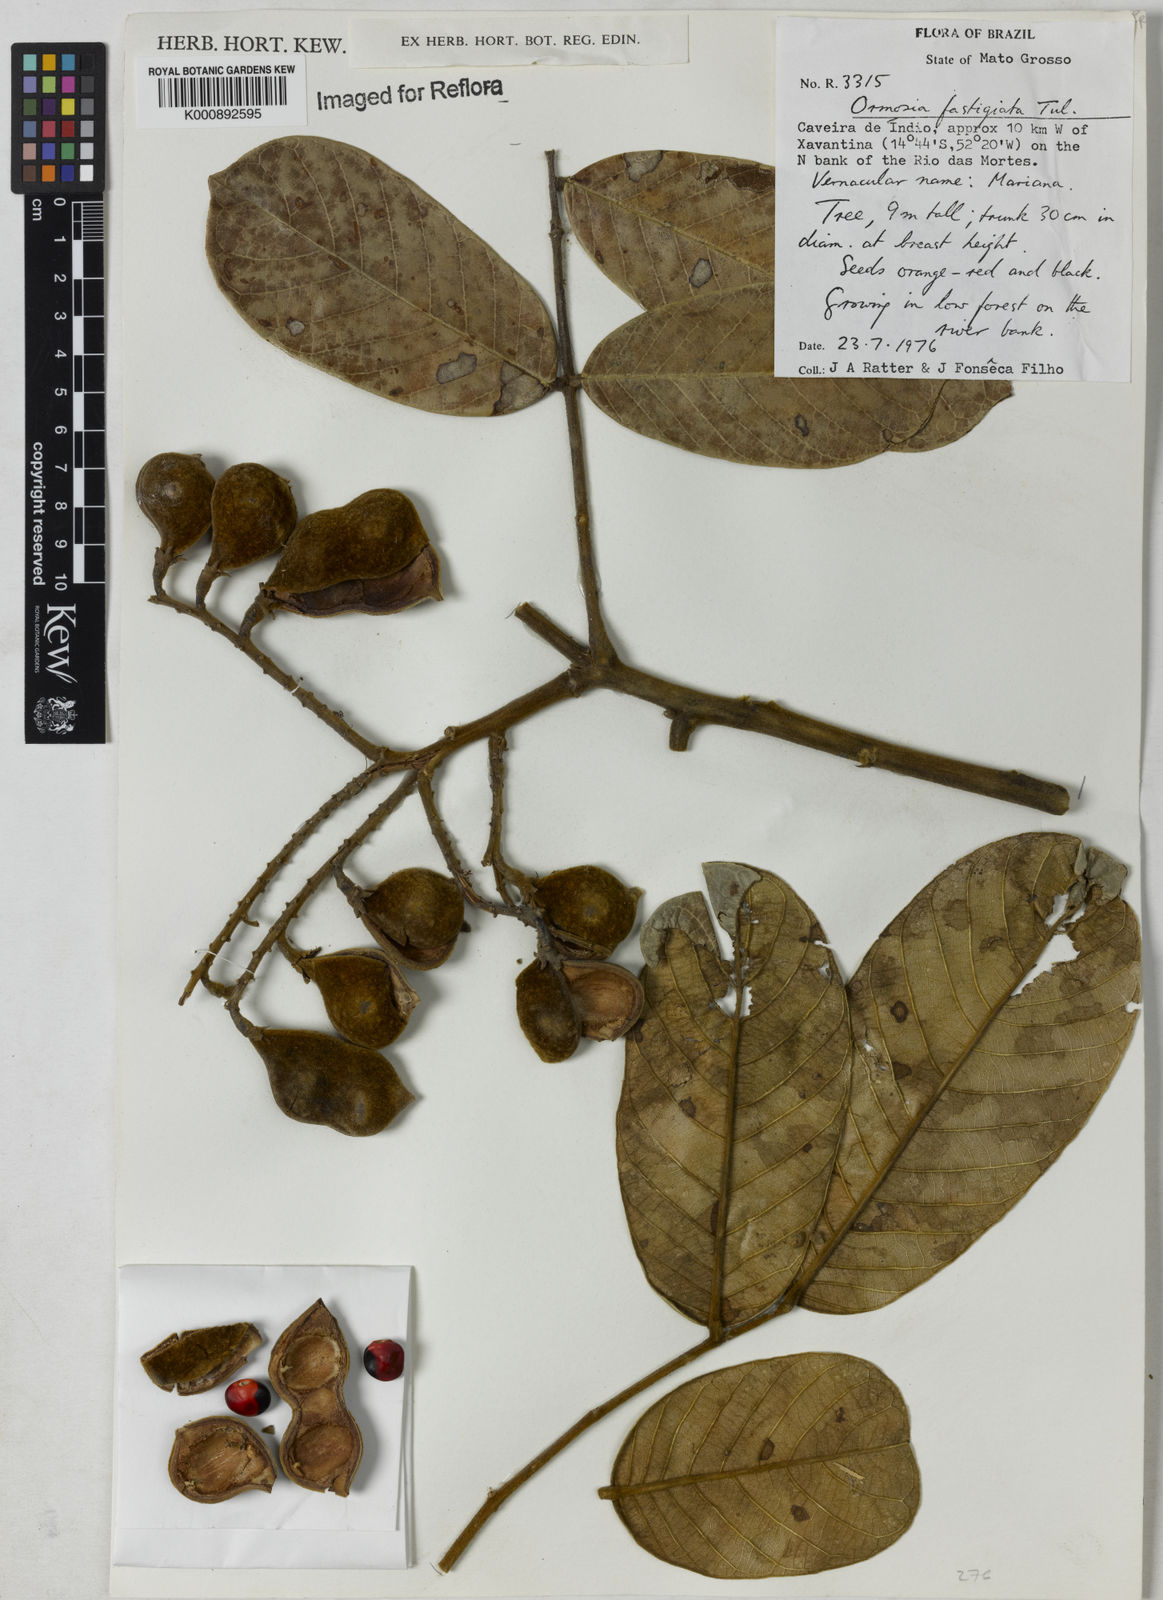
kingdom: Plantae
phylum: Tracheophyta
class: Magnoliopsida
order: Fabales
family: Fabaceae
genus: Ormosia
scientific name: Ormosia coarctata
